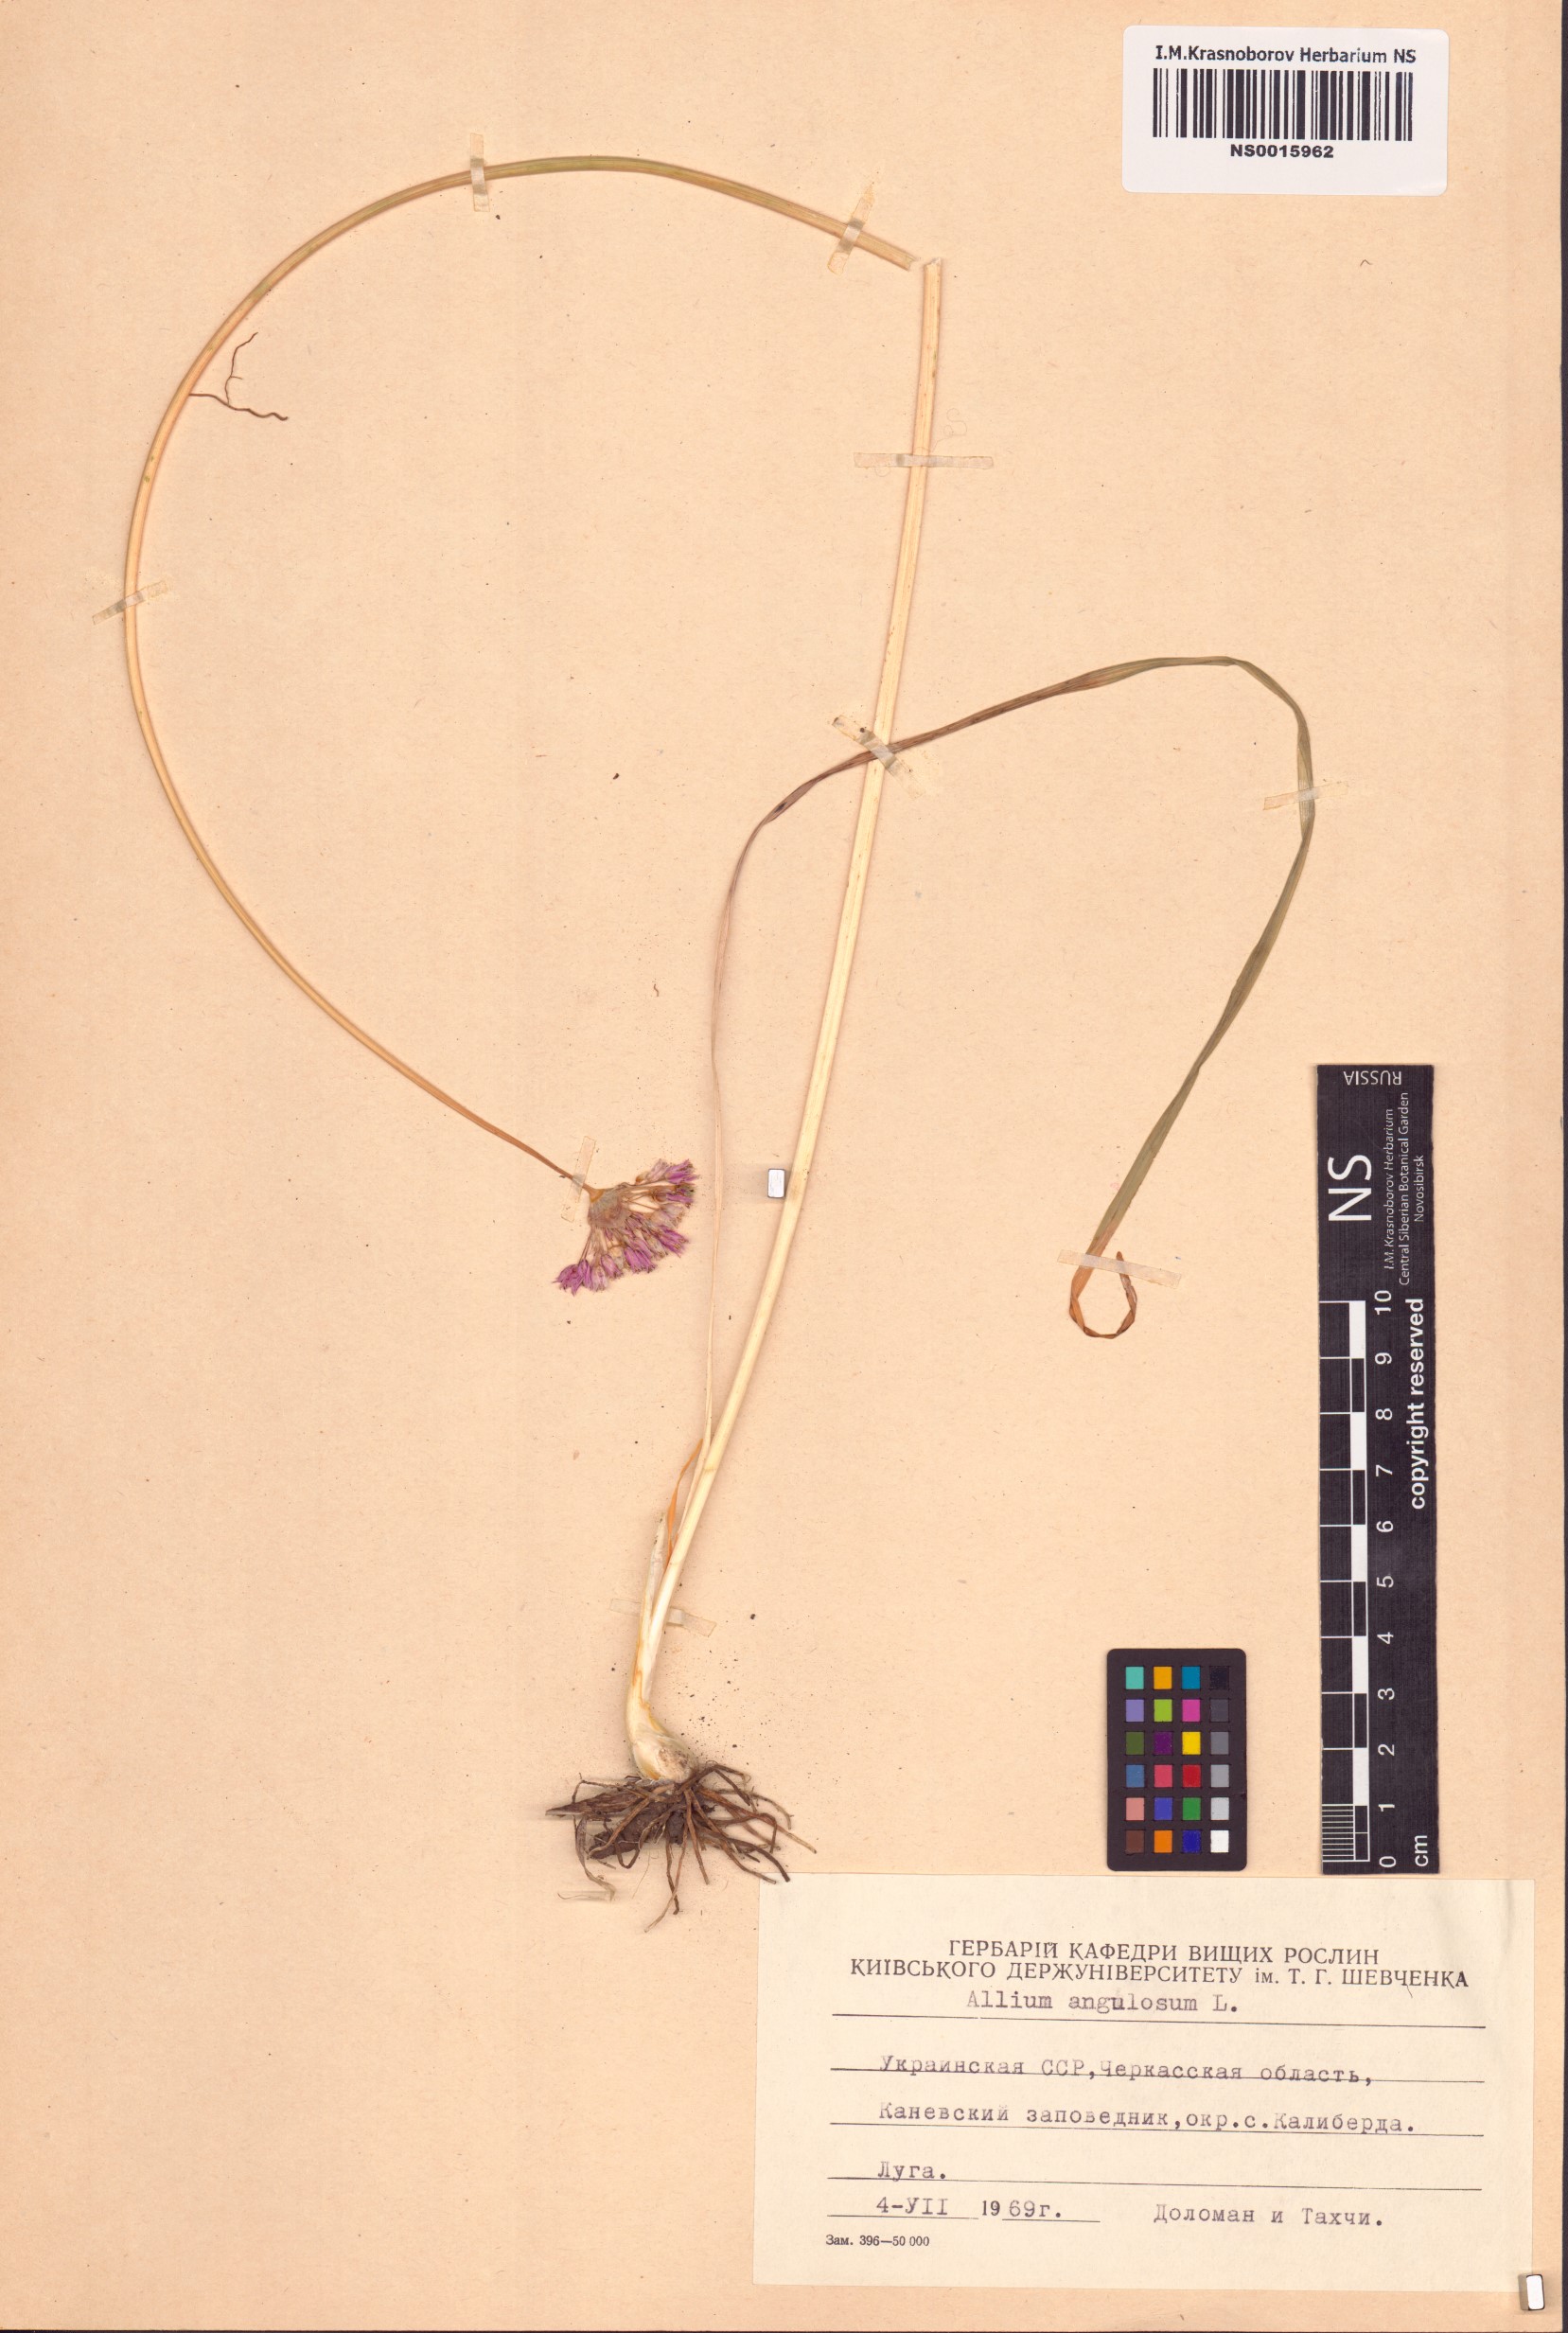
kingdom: Plantae
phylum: Tracheophyta
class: Liliopsida
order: Asparagales
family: Amaryllidaceae
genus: Allium
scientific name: Allium angulosum
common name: Mouse garlic
